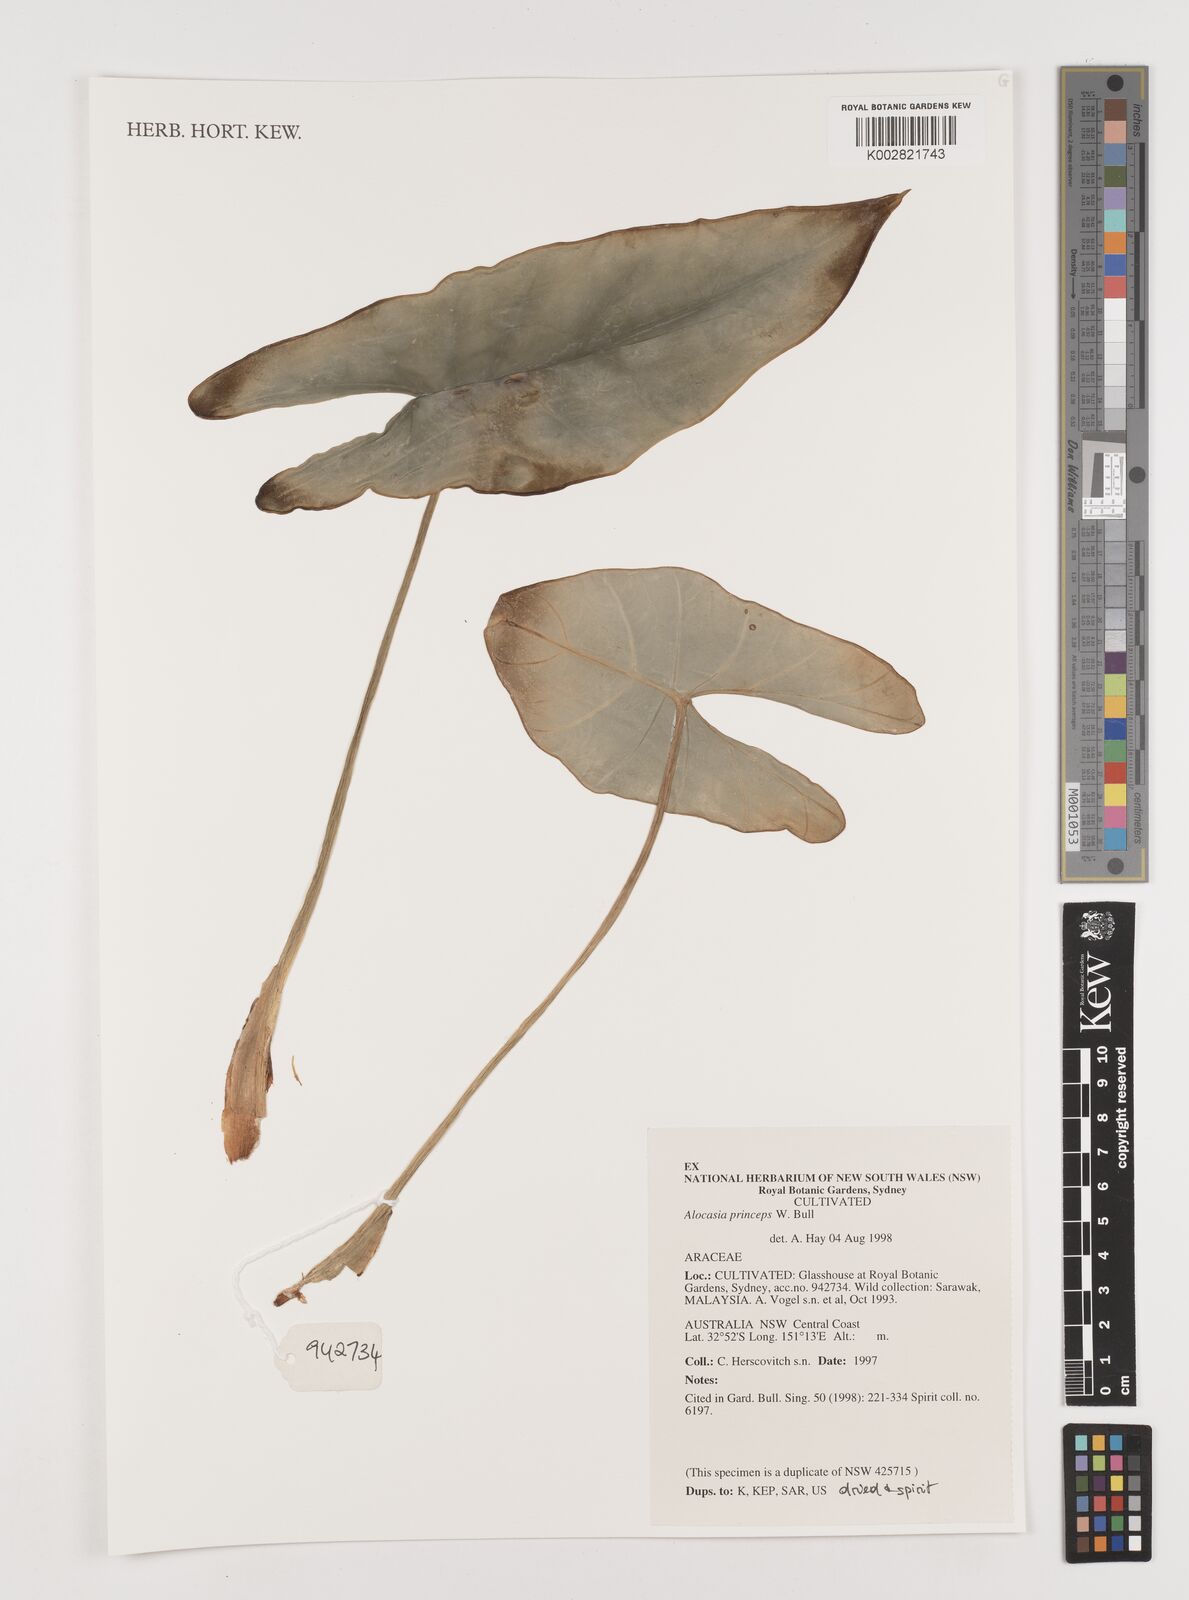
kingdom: Plantae
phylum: Tracheophyta
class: Liliopsida
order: Alismatales
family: Araceae
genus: Alocasia
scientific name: Alocasia princeps
